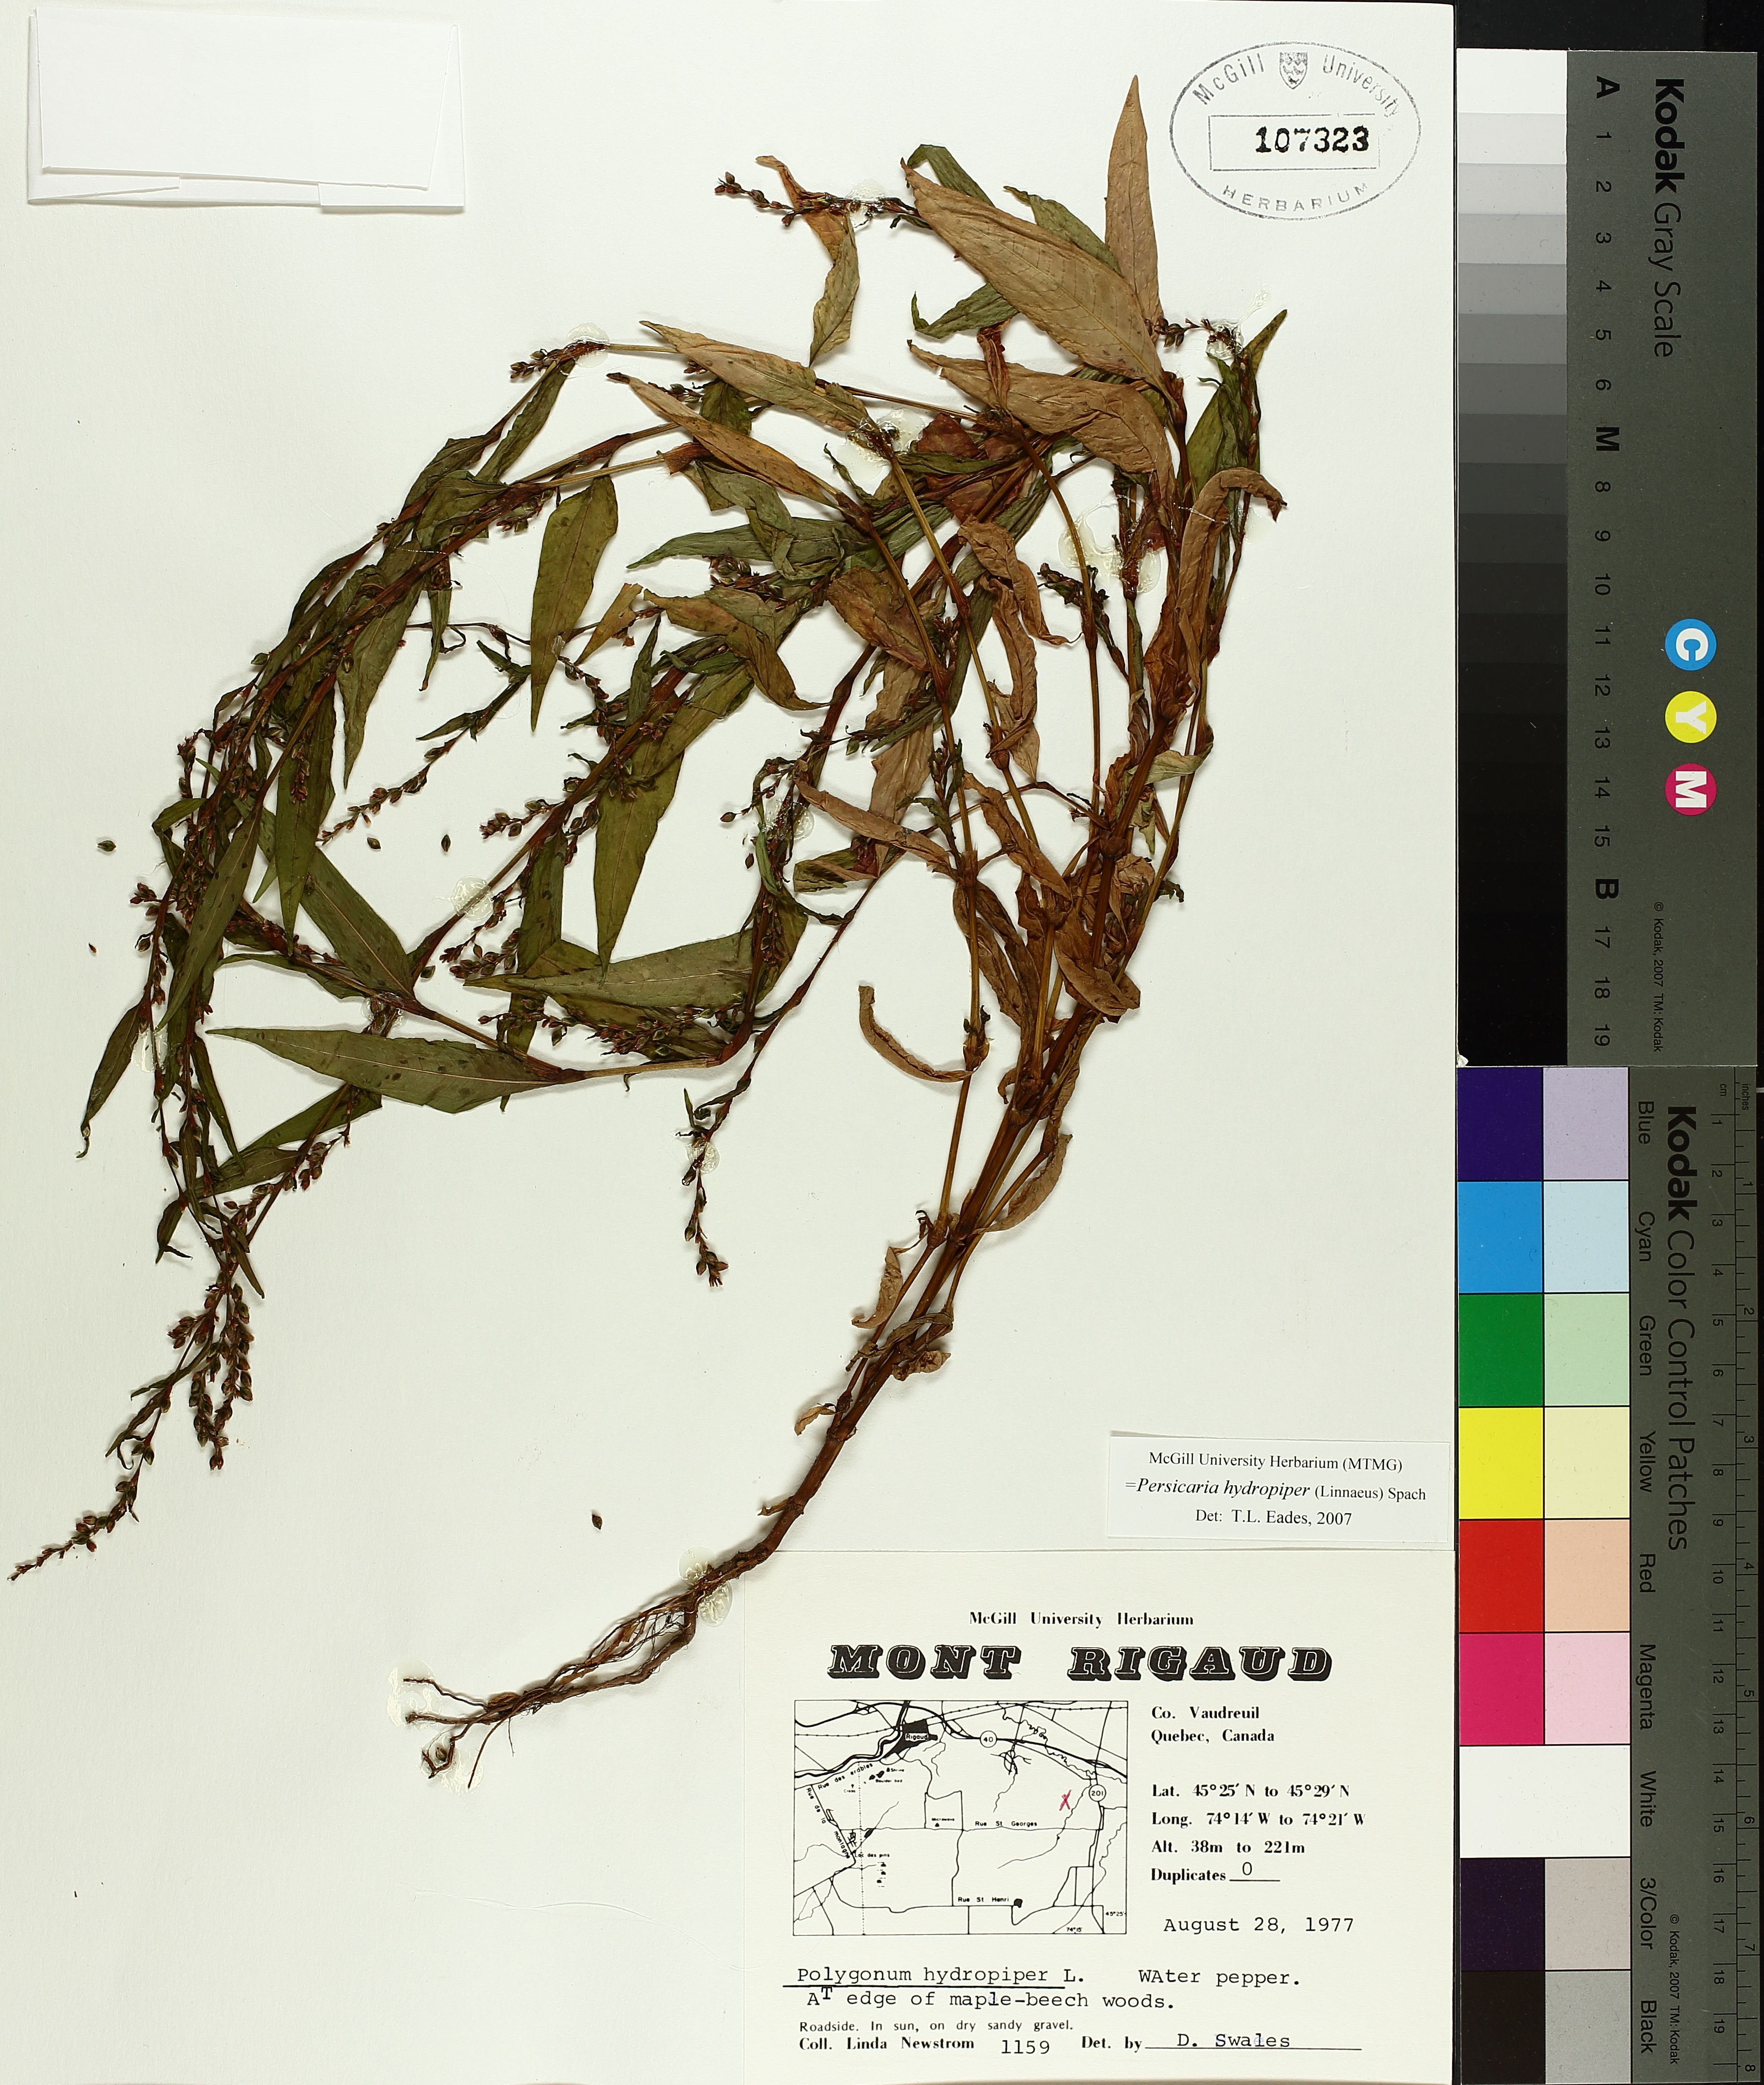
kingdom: Plantae
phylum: Tracheophyta
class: Magnoliopsida
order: Caryophyllales
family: Polygonaceae
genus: Persicaria
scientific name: Persicaria hydropiper
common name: Water-pepper
